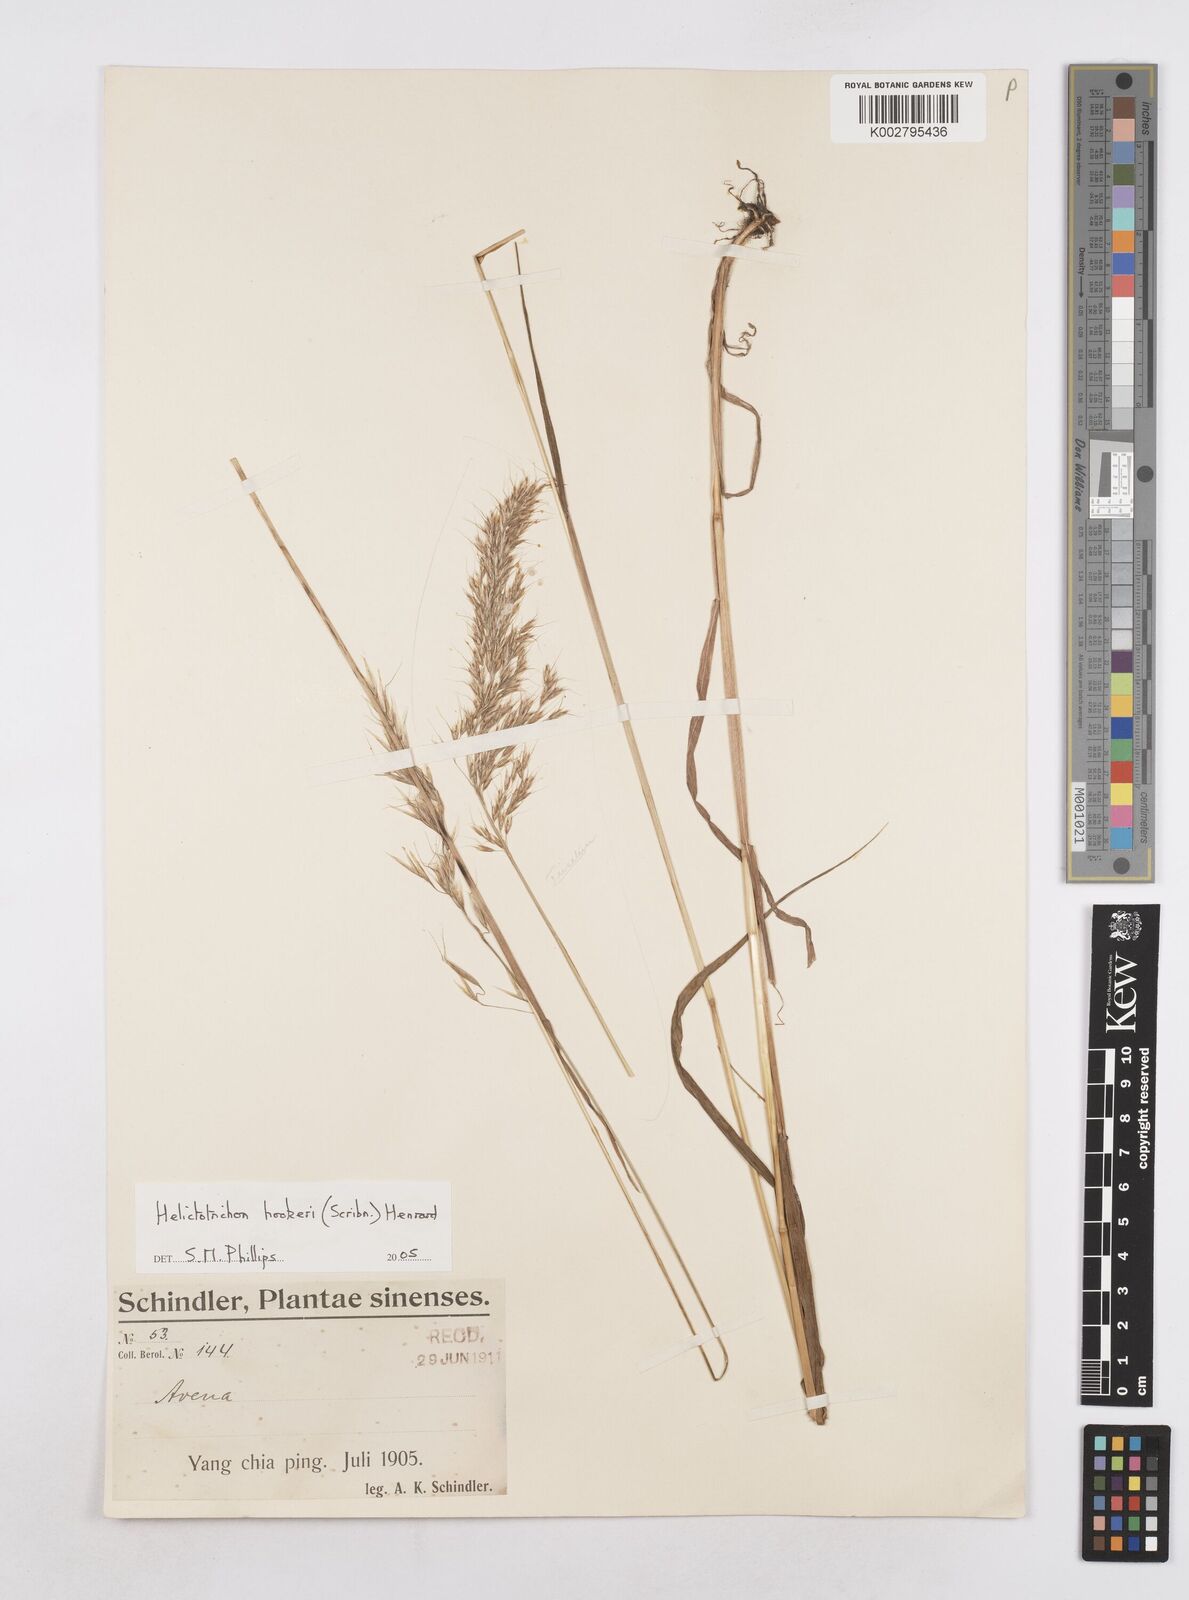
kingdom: Plantae
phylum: Tracheophyta
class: Liliopsida
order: Poales
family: Poaceae
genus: Helictochloa
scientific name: Helictochloa hookeri
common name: Hooker's alpine oatgrass
